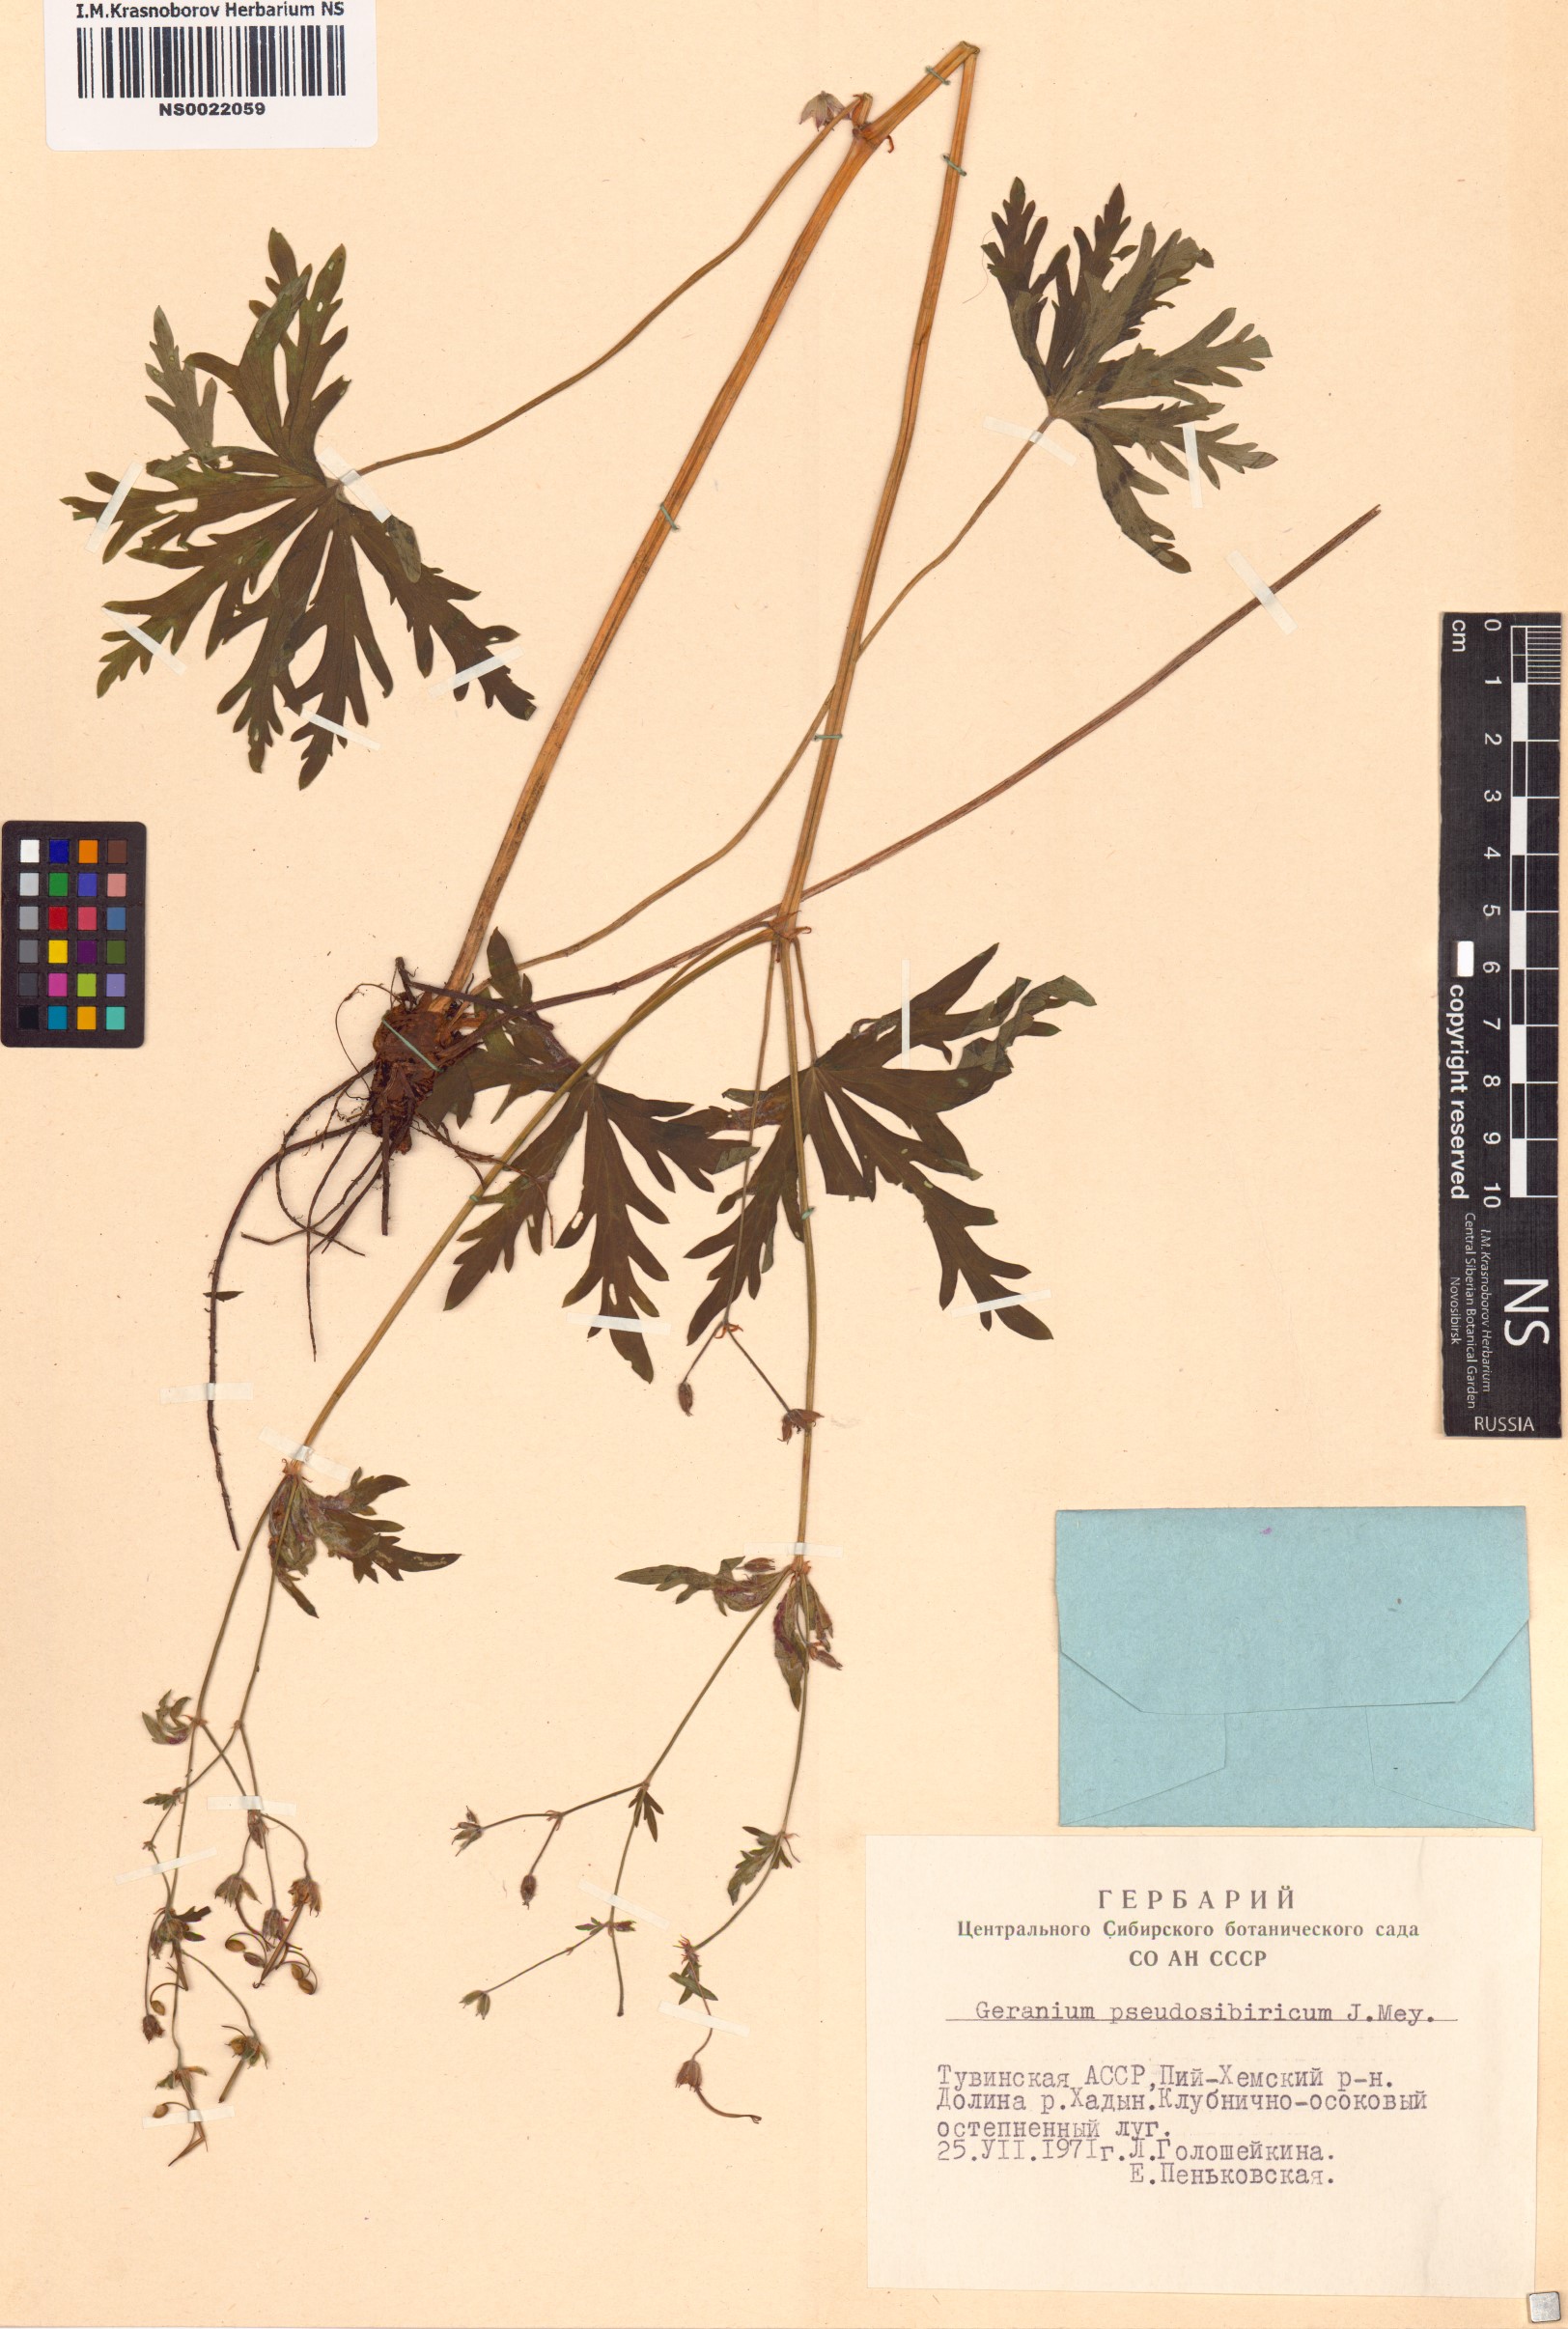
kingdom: Plantae
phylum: Tracheophyta
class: Magnoliopsida
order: Geraniales
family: Geraniaceae
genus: Geranium
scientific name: Geranium pseudosibiricum
